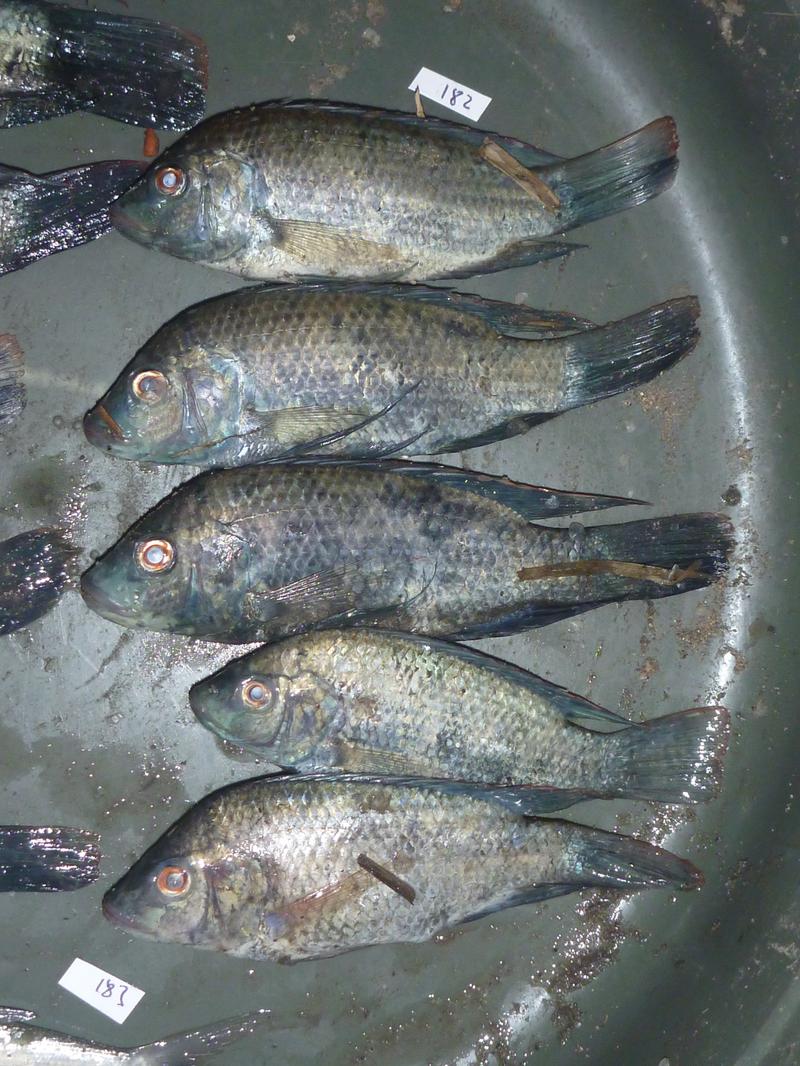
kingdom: Animalia
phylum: Chordata
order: Perciformes
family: Cichlidae
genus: Oreochromis
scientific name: Oreochromis urolepis
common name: Wami tilapia
